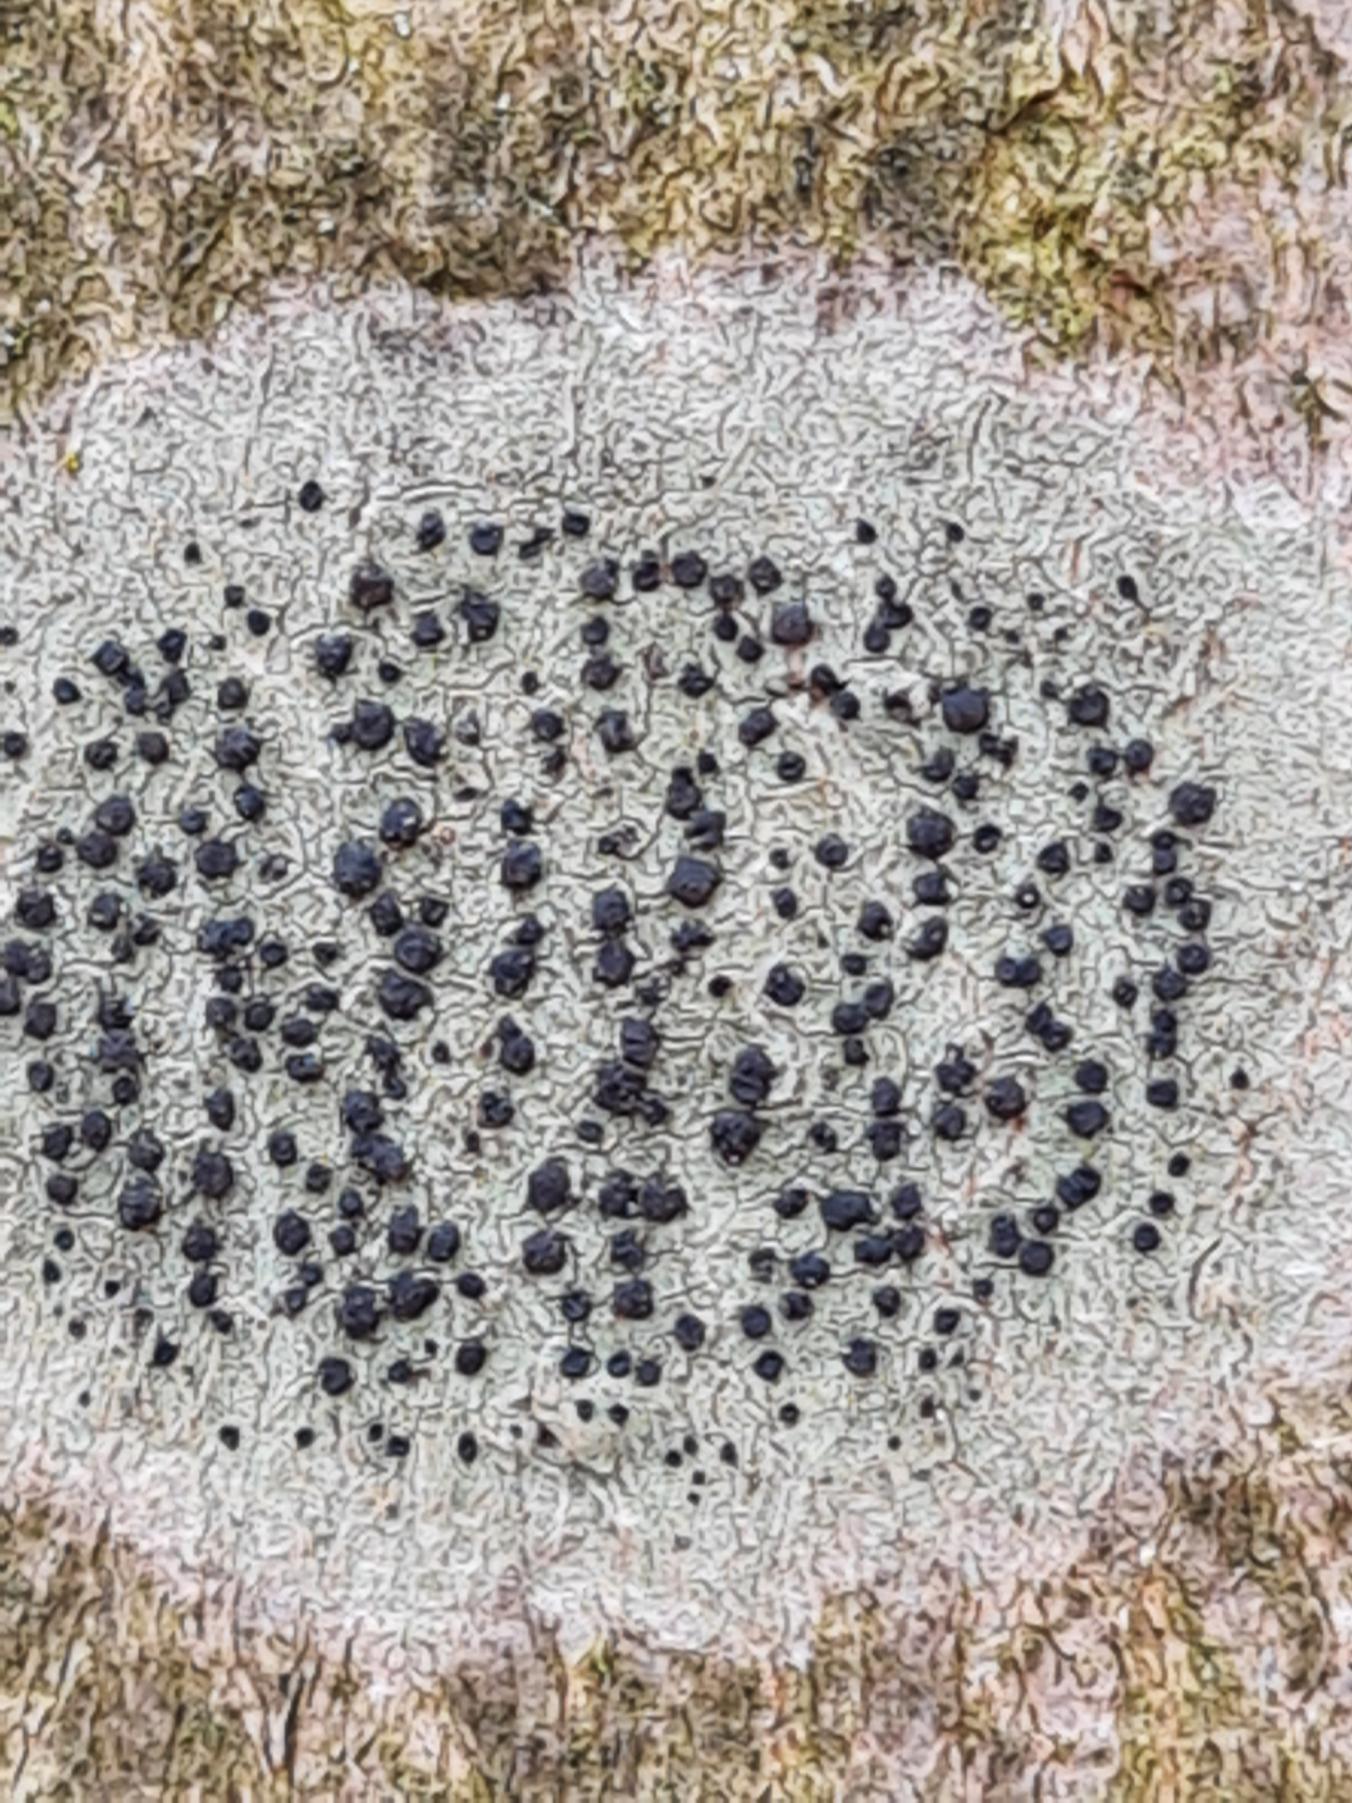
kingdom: Fungi
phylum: Ascomycota
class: Lecanoromycetes
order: Lecanorales
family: Lecanoraceae
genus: Lecidella
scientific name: Lecidella elaeochroma
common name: Grågrøn skivelav
